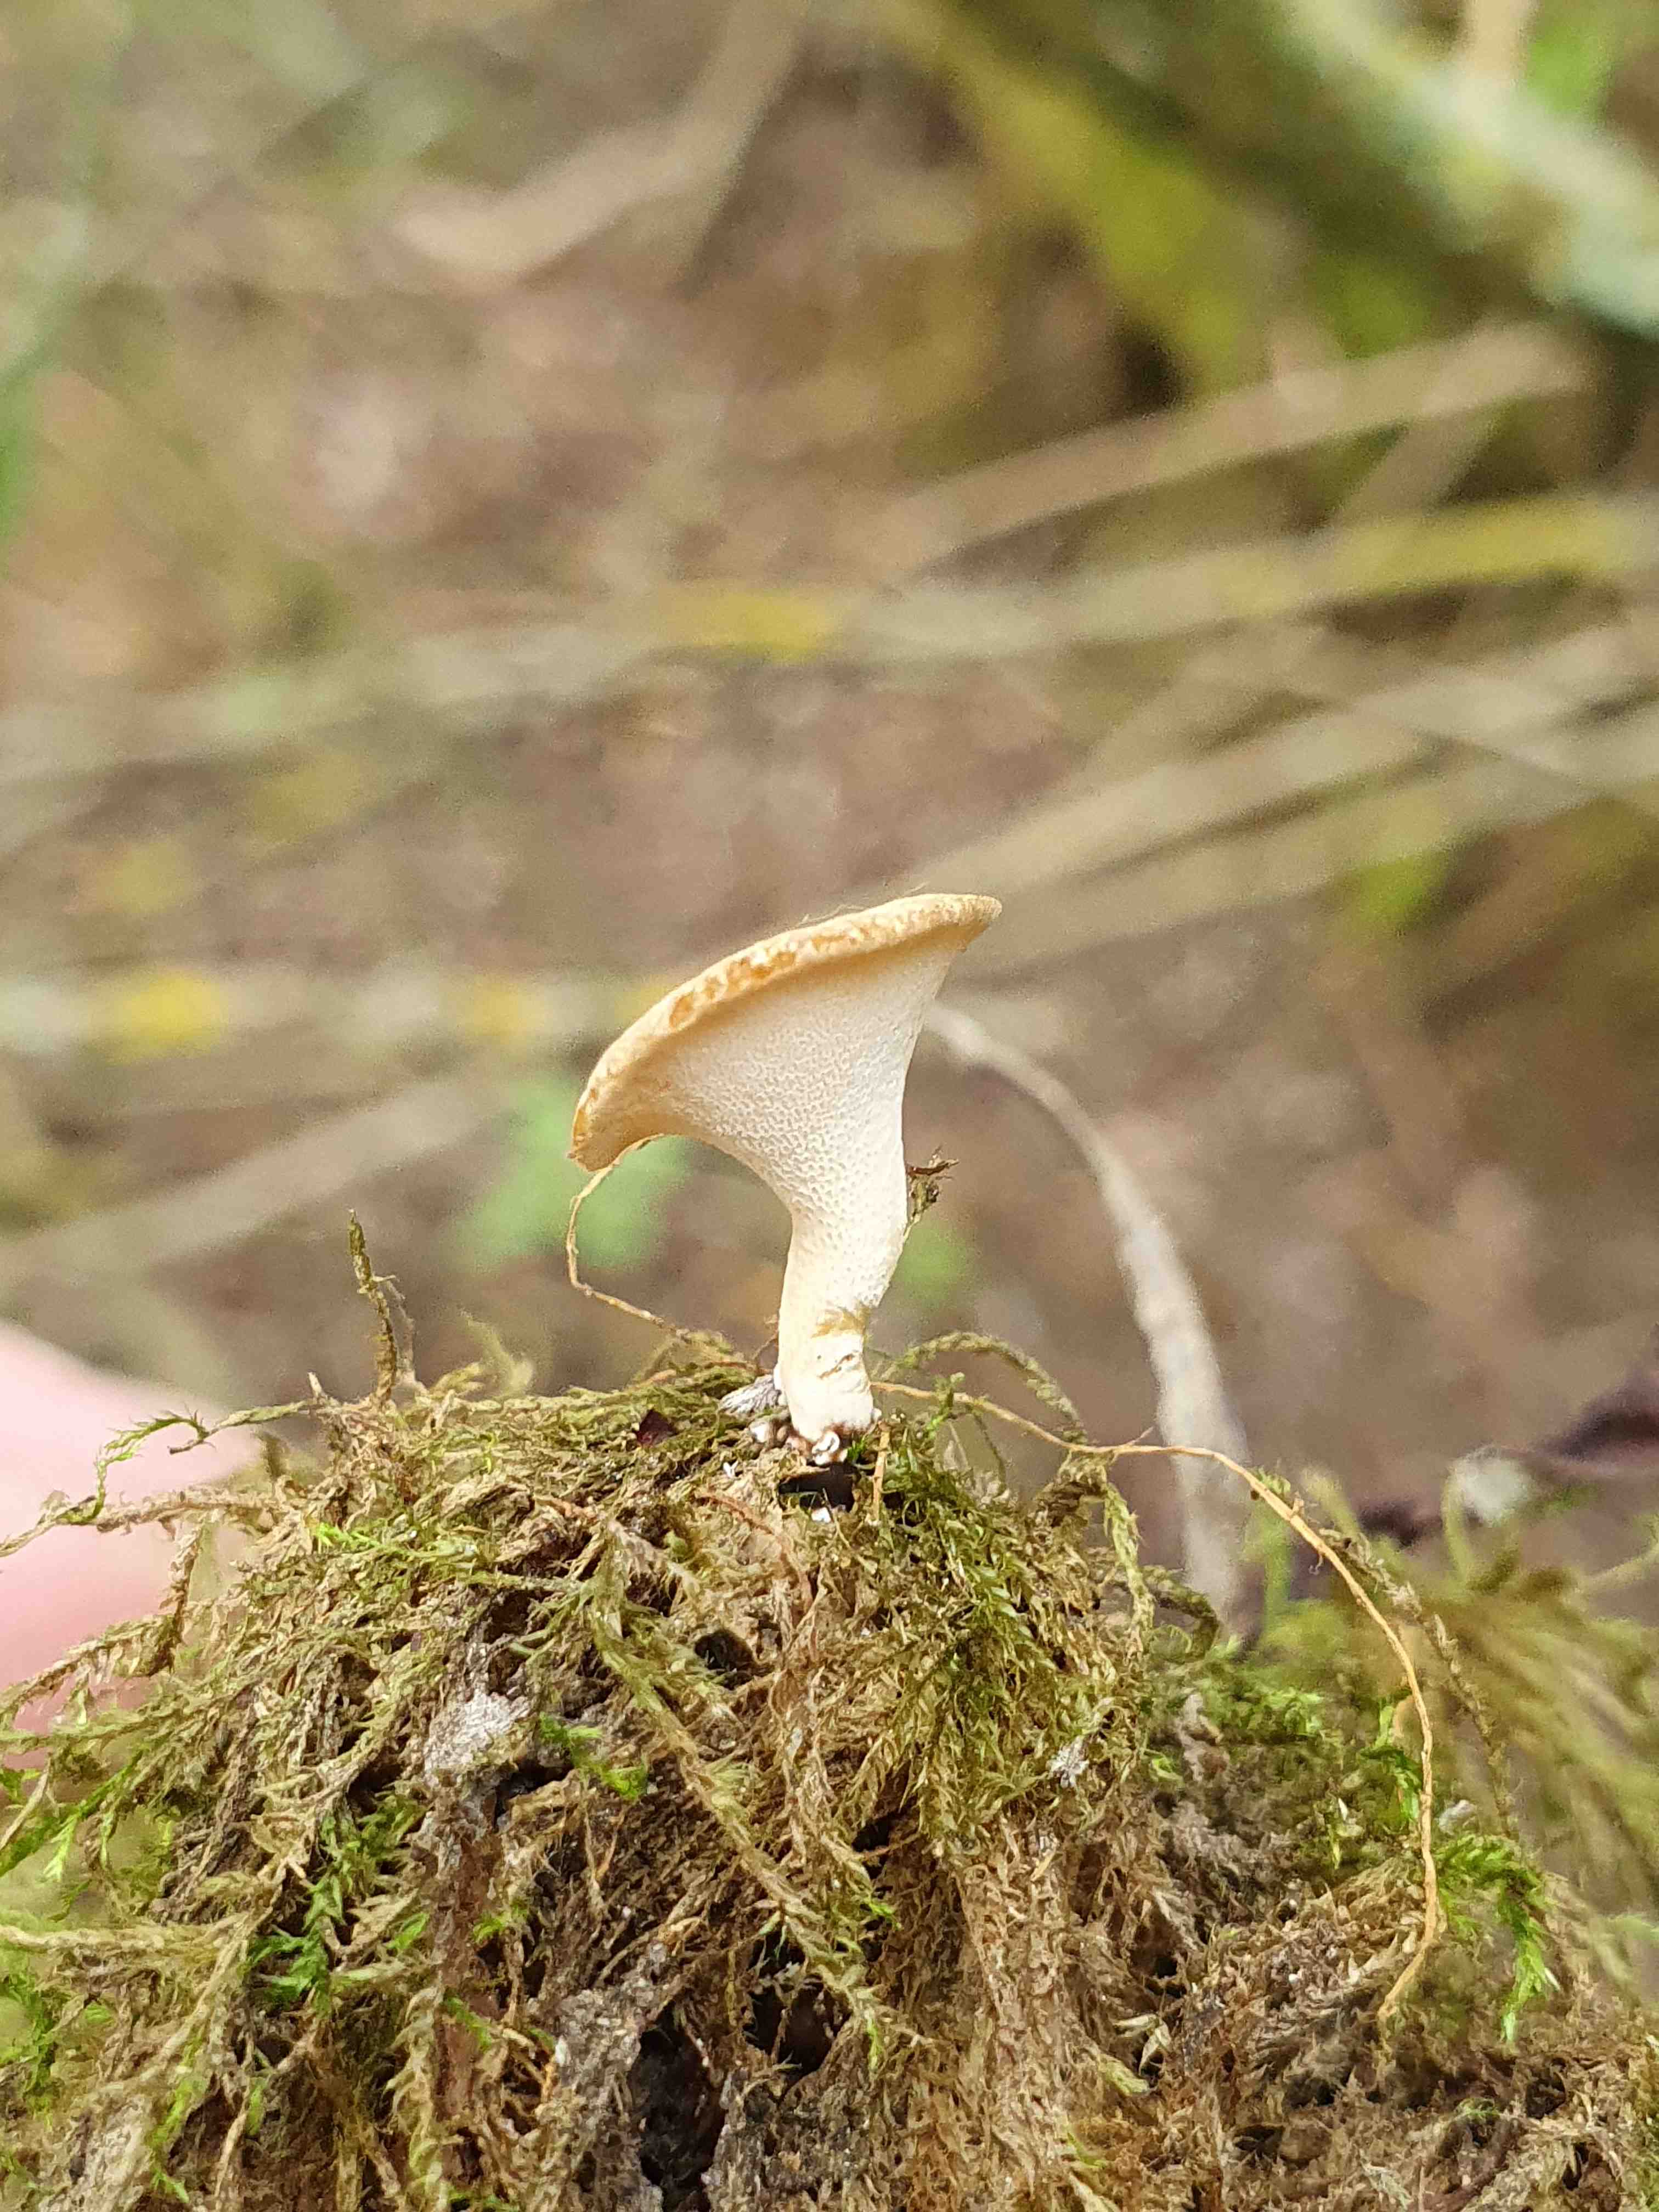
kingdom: Fungi
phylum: Basidiomycota
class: Agaricomycetes
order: Polyporales
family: Polyporaceae
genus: Cerioporus
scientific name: Cerioporus varius
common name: foranderlig stilkporesvamp
